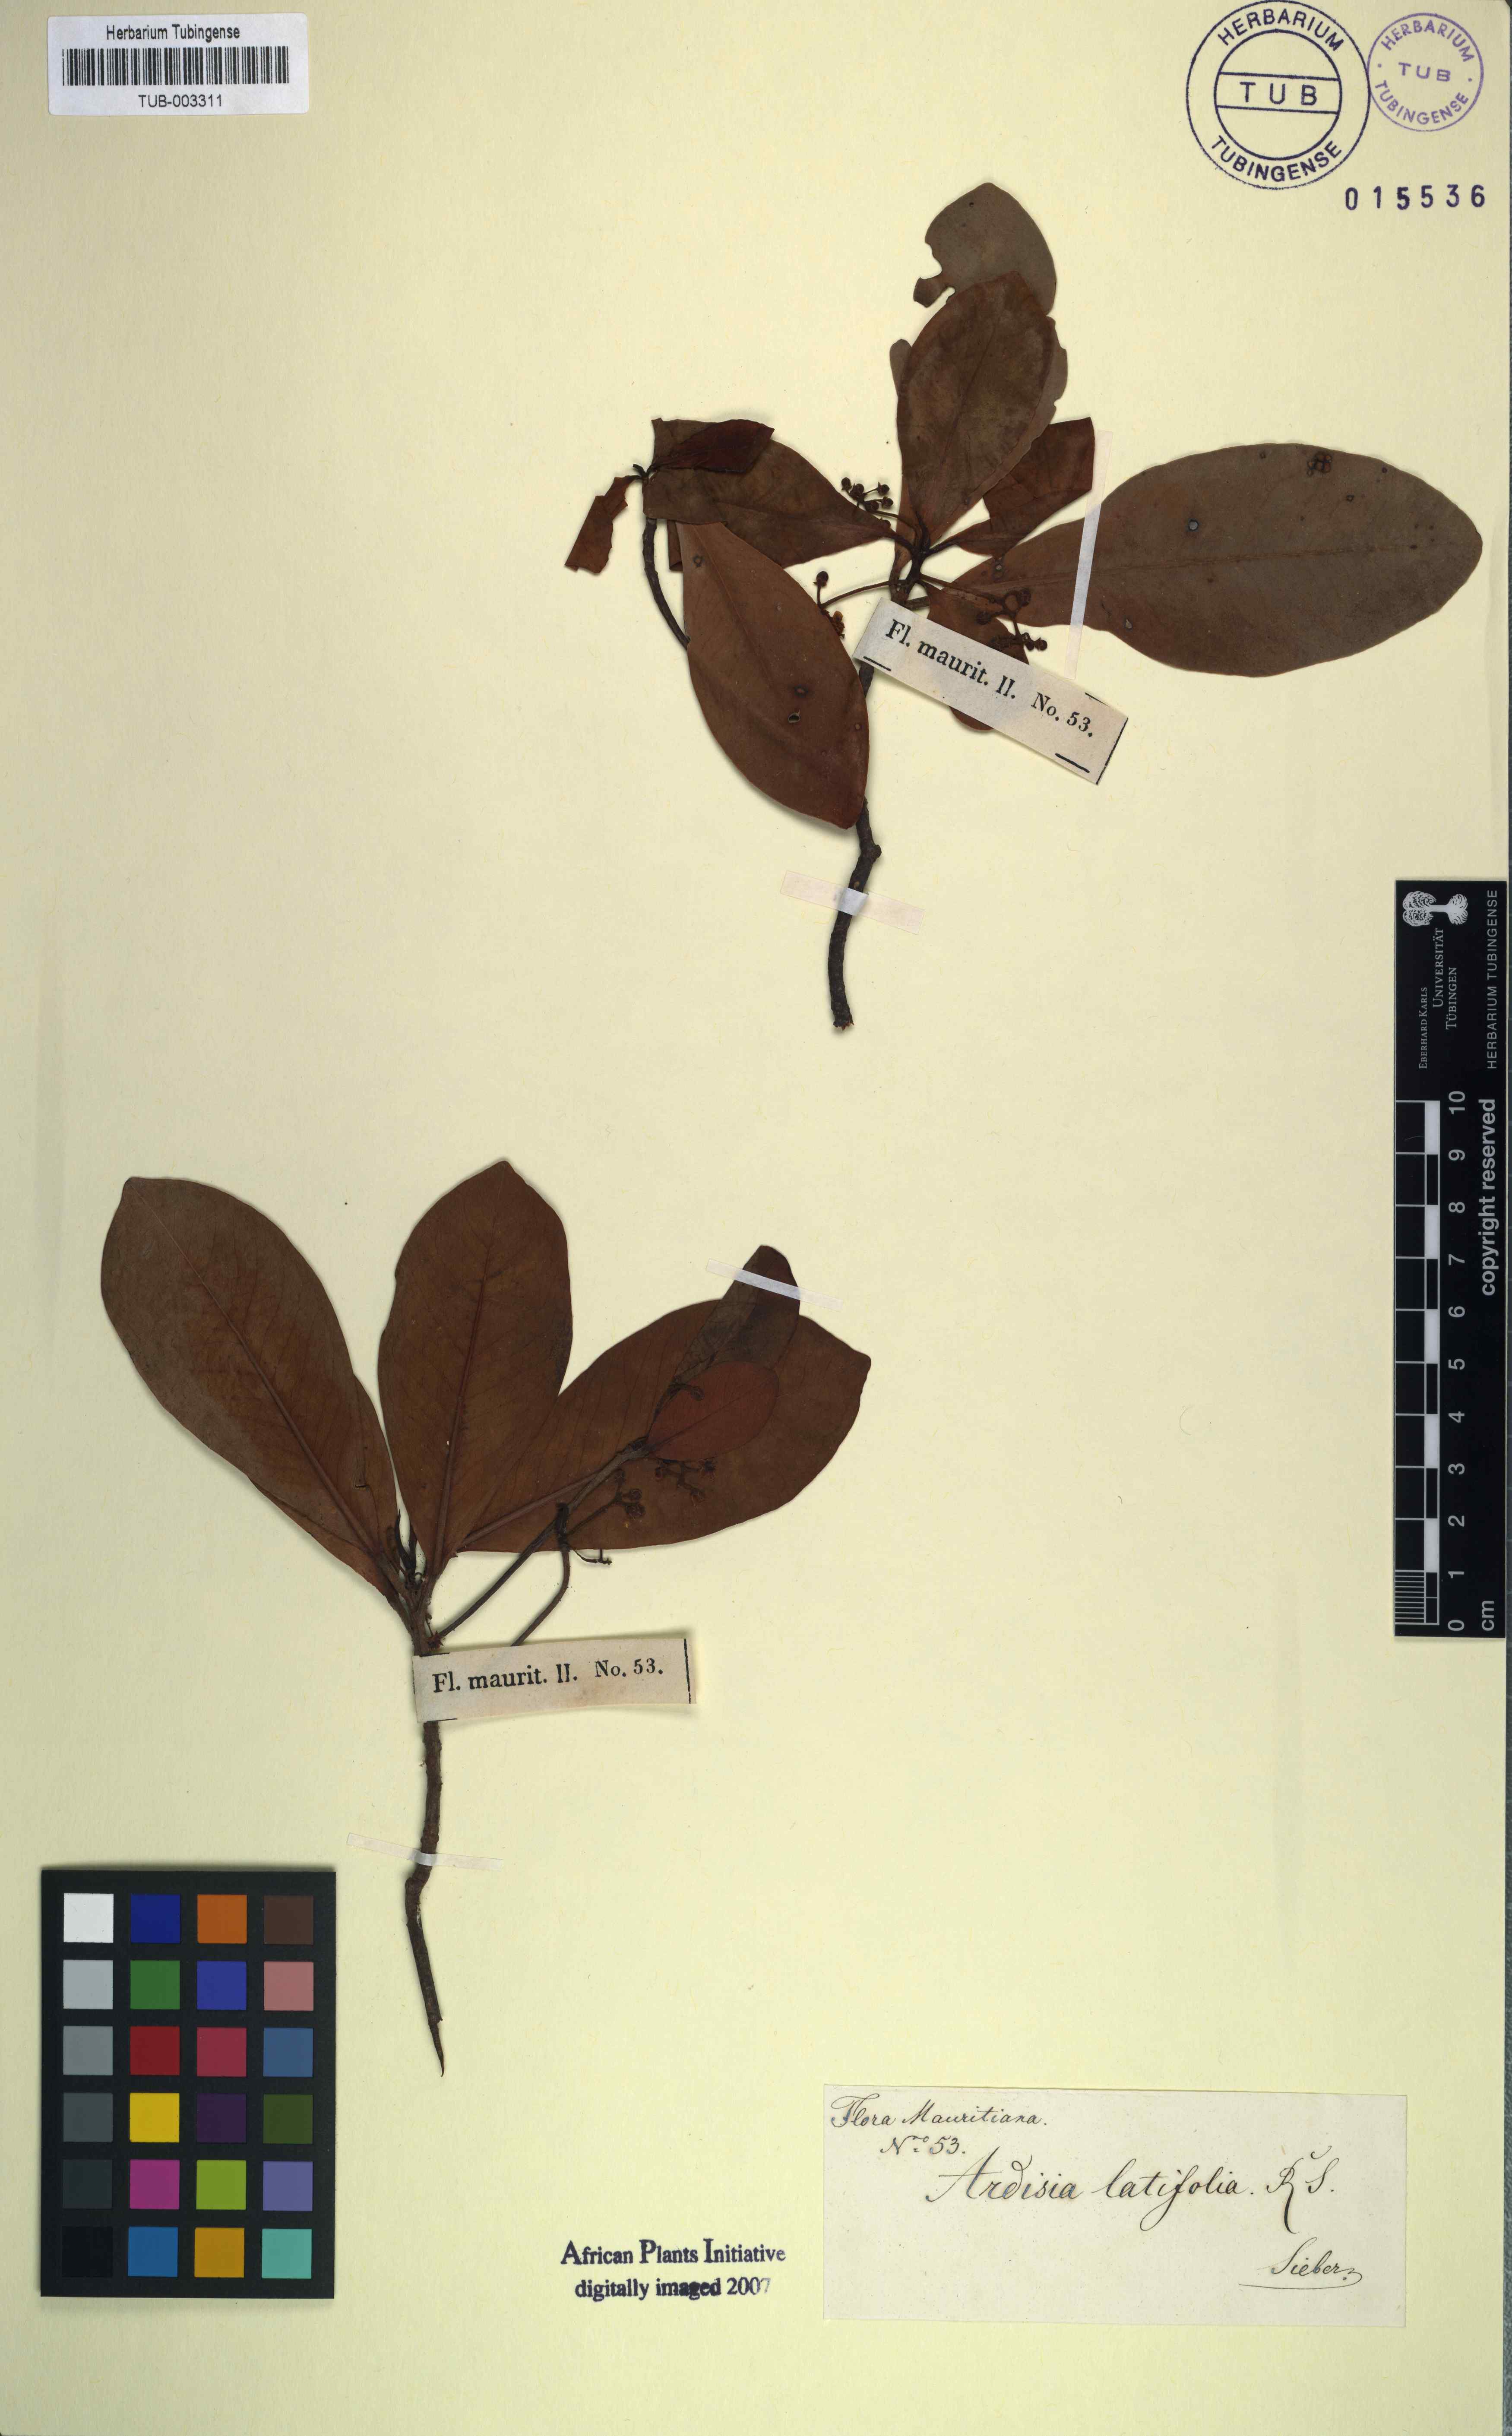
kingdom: Plantae
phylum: Tracheophyta
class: Magnoliopsida
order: Ericales
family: Primulaceae
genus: Wallenia
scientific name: Wallenia lamarckiana
